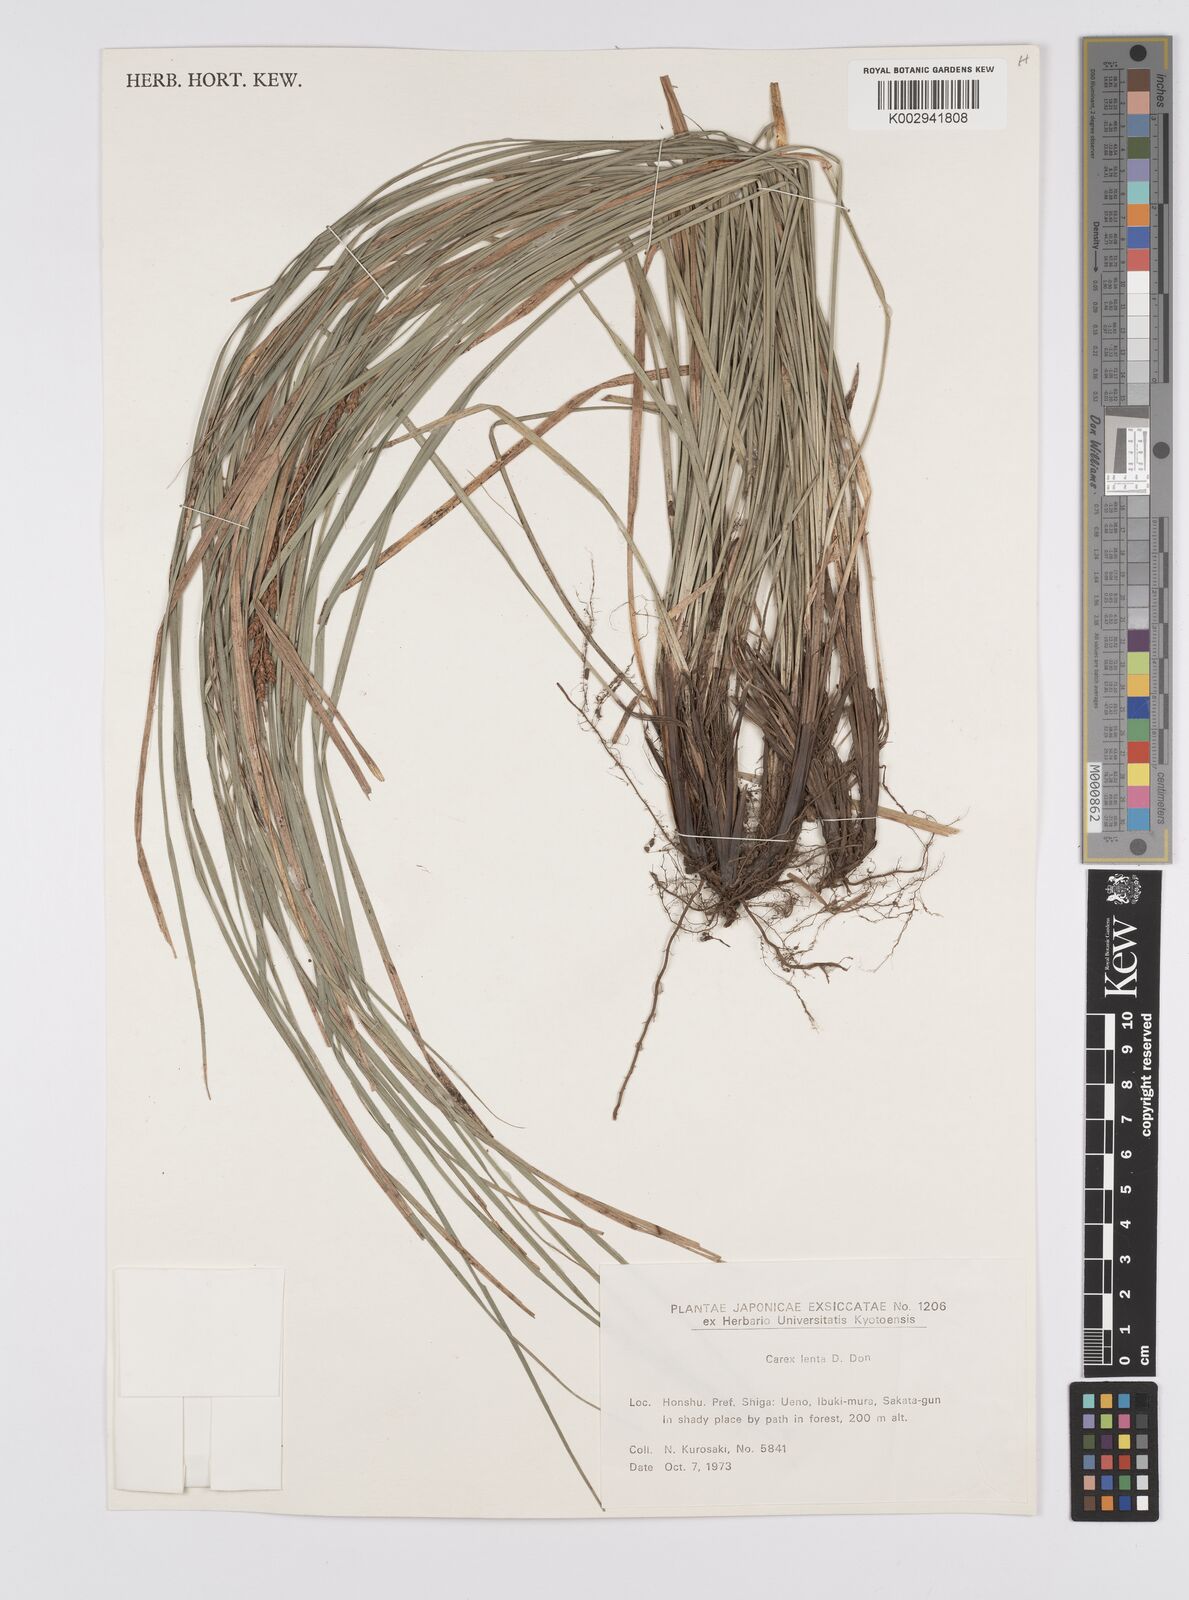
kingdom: Plantae
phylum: Tracheophyta
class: Liliopsida
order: Poales
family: Cyperaceae
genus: Carex
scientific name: Carex brunnea
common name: Greater brown sedge
